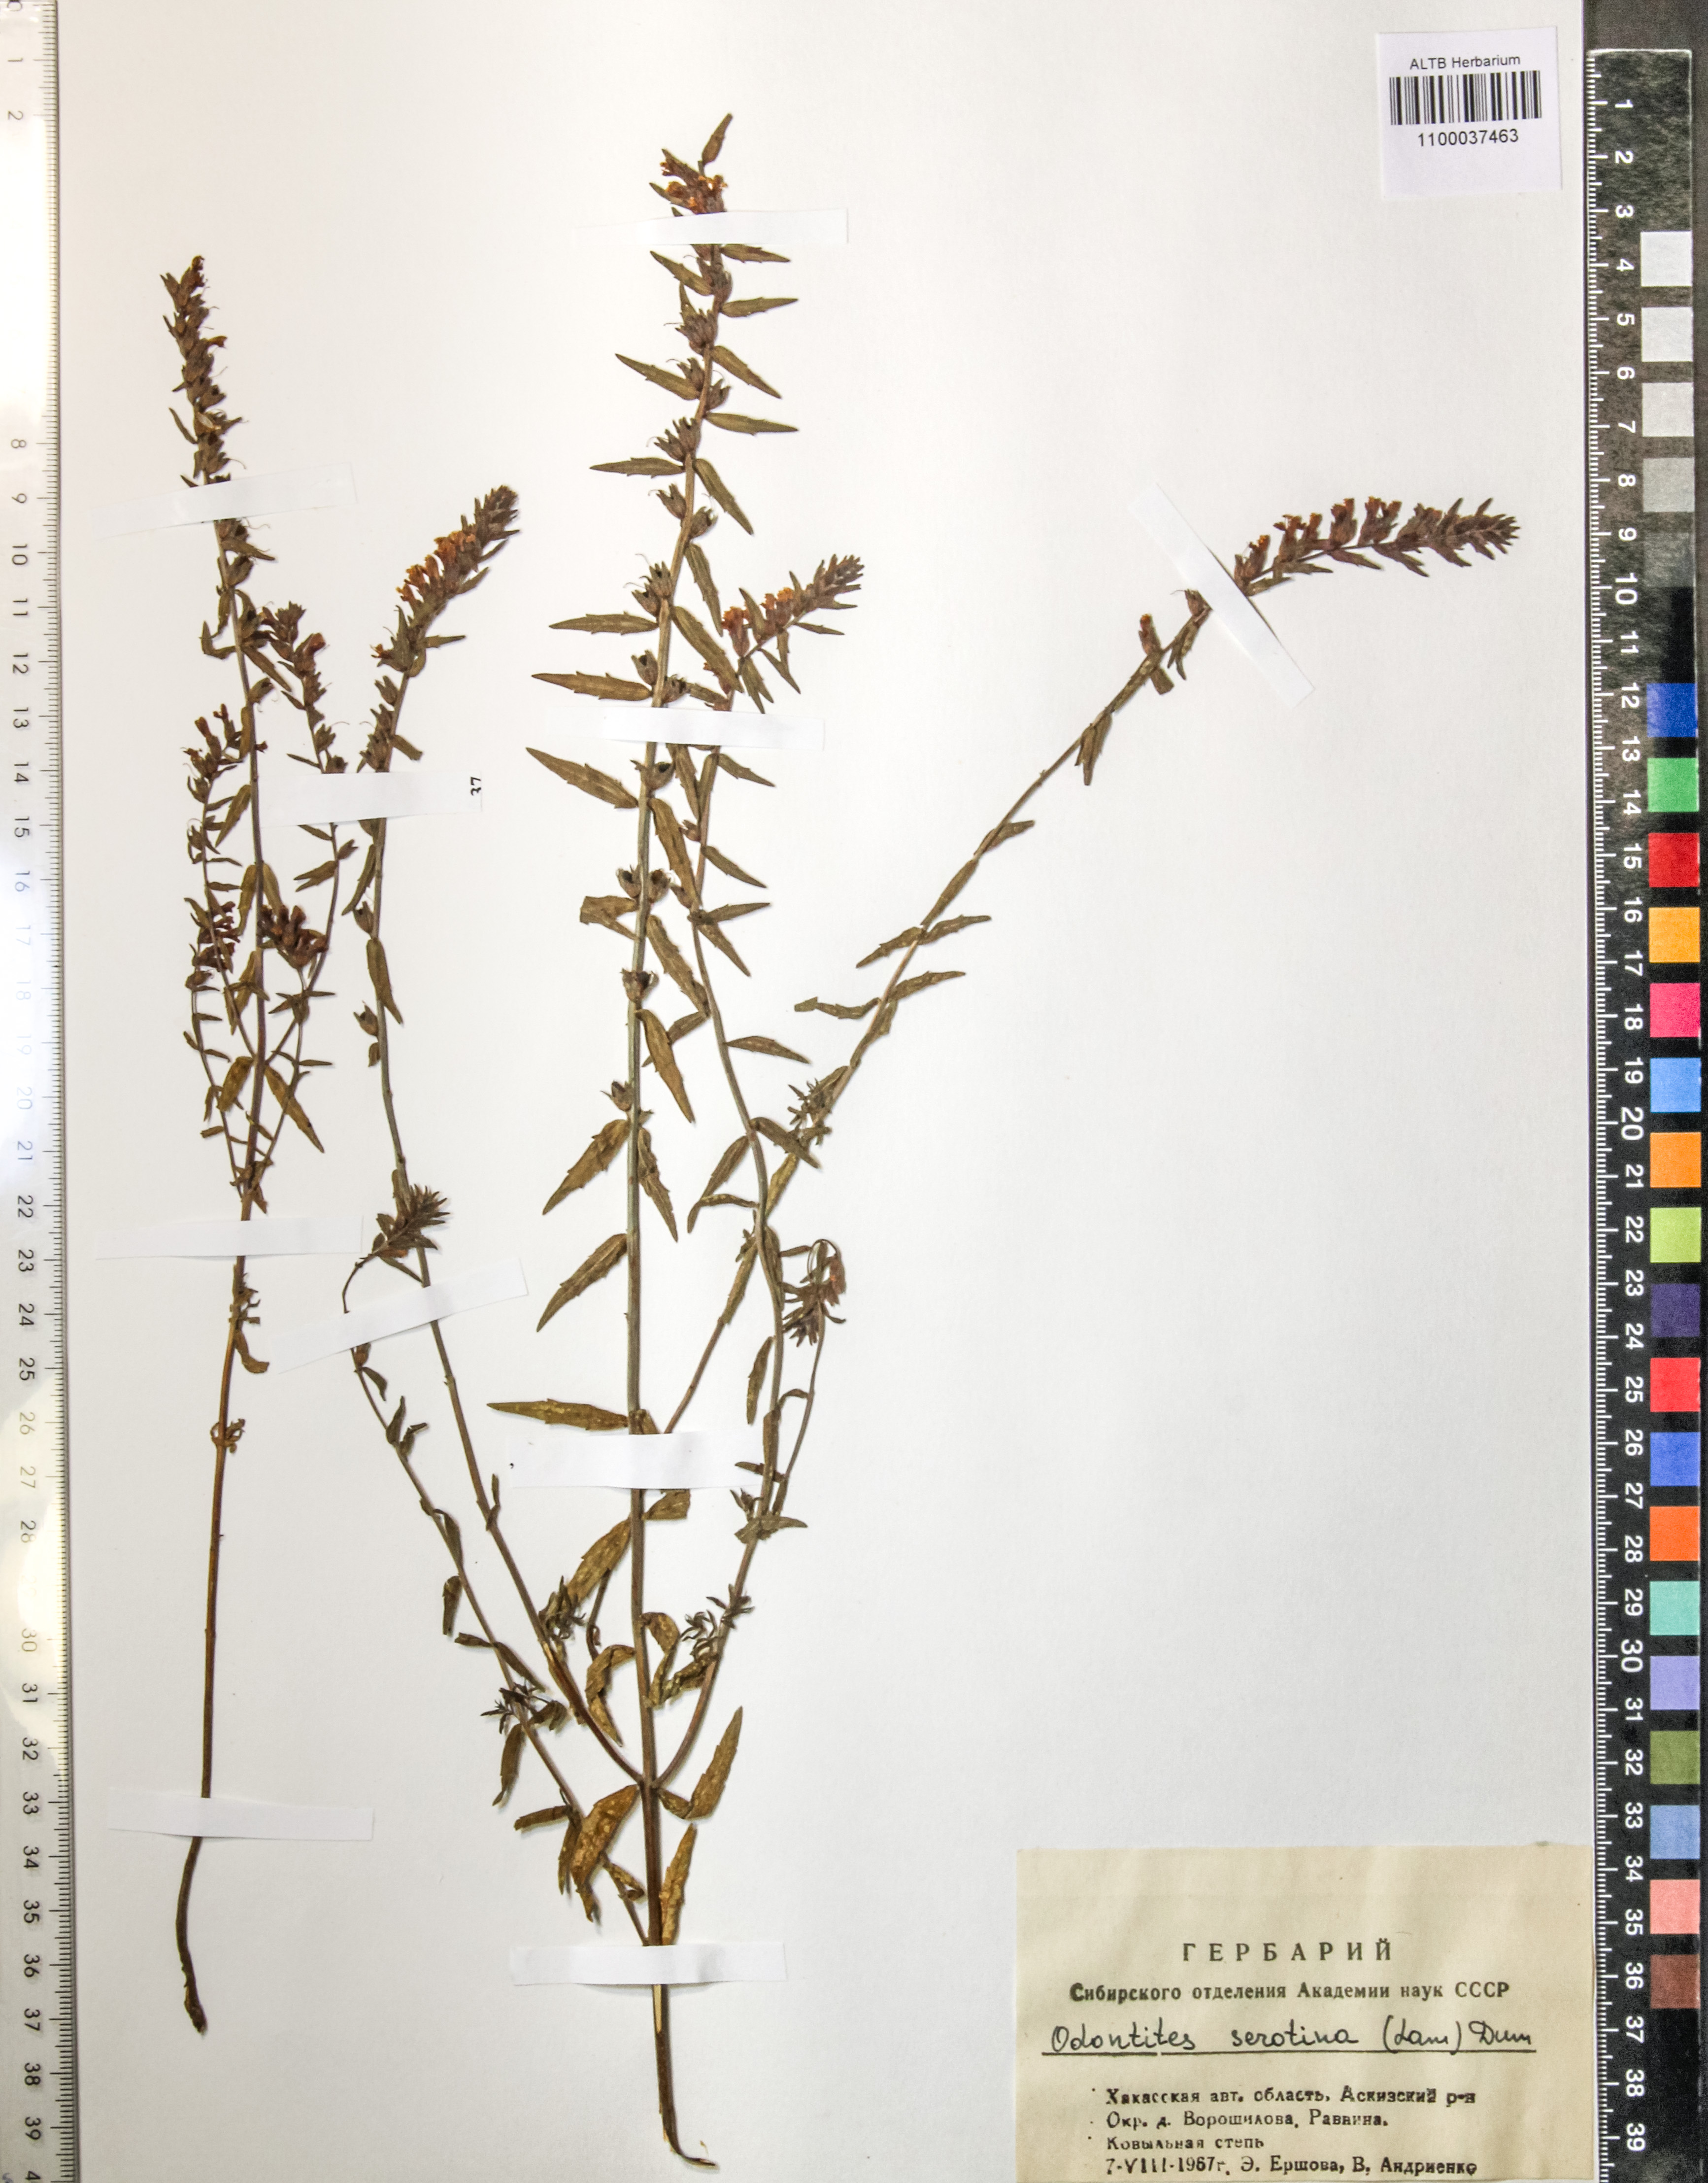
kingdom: Plantae
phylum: Tracheophyta
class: Magnoliopsida
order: Lamiales
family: Orobanchaceae
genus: Odontites
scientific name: Odontites vulgaris
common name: Broomrape
